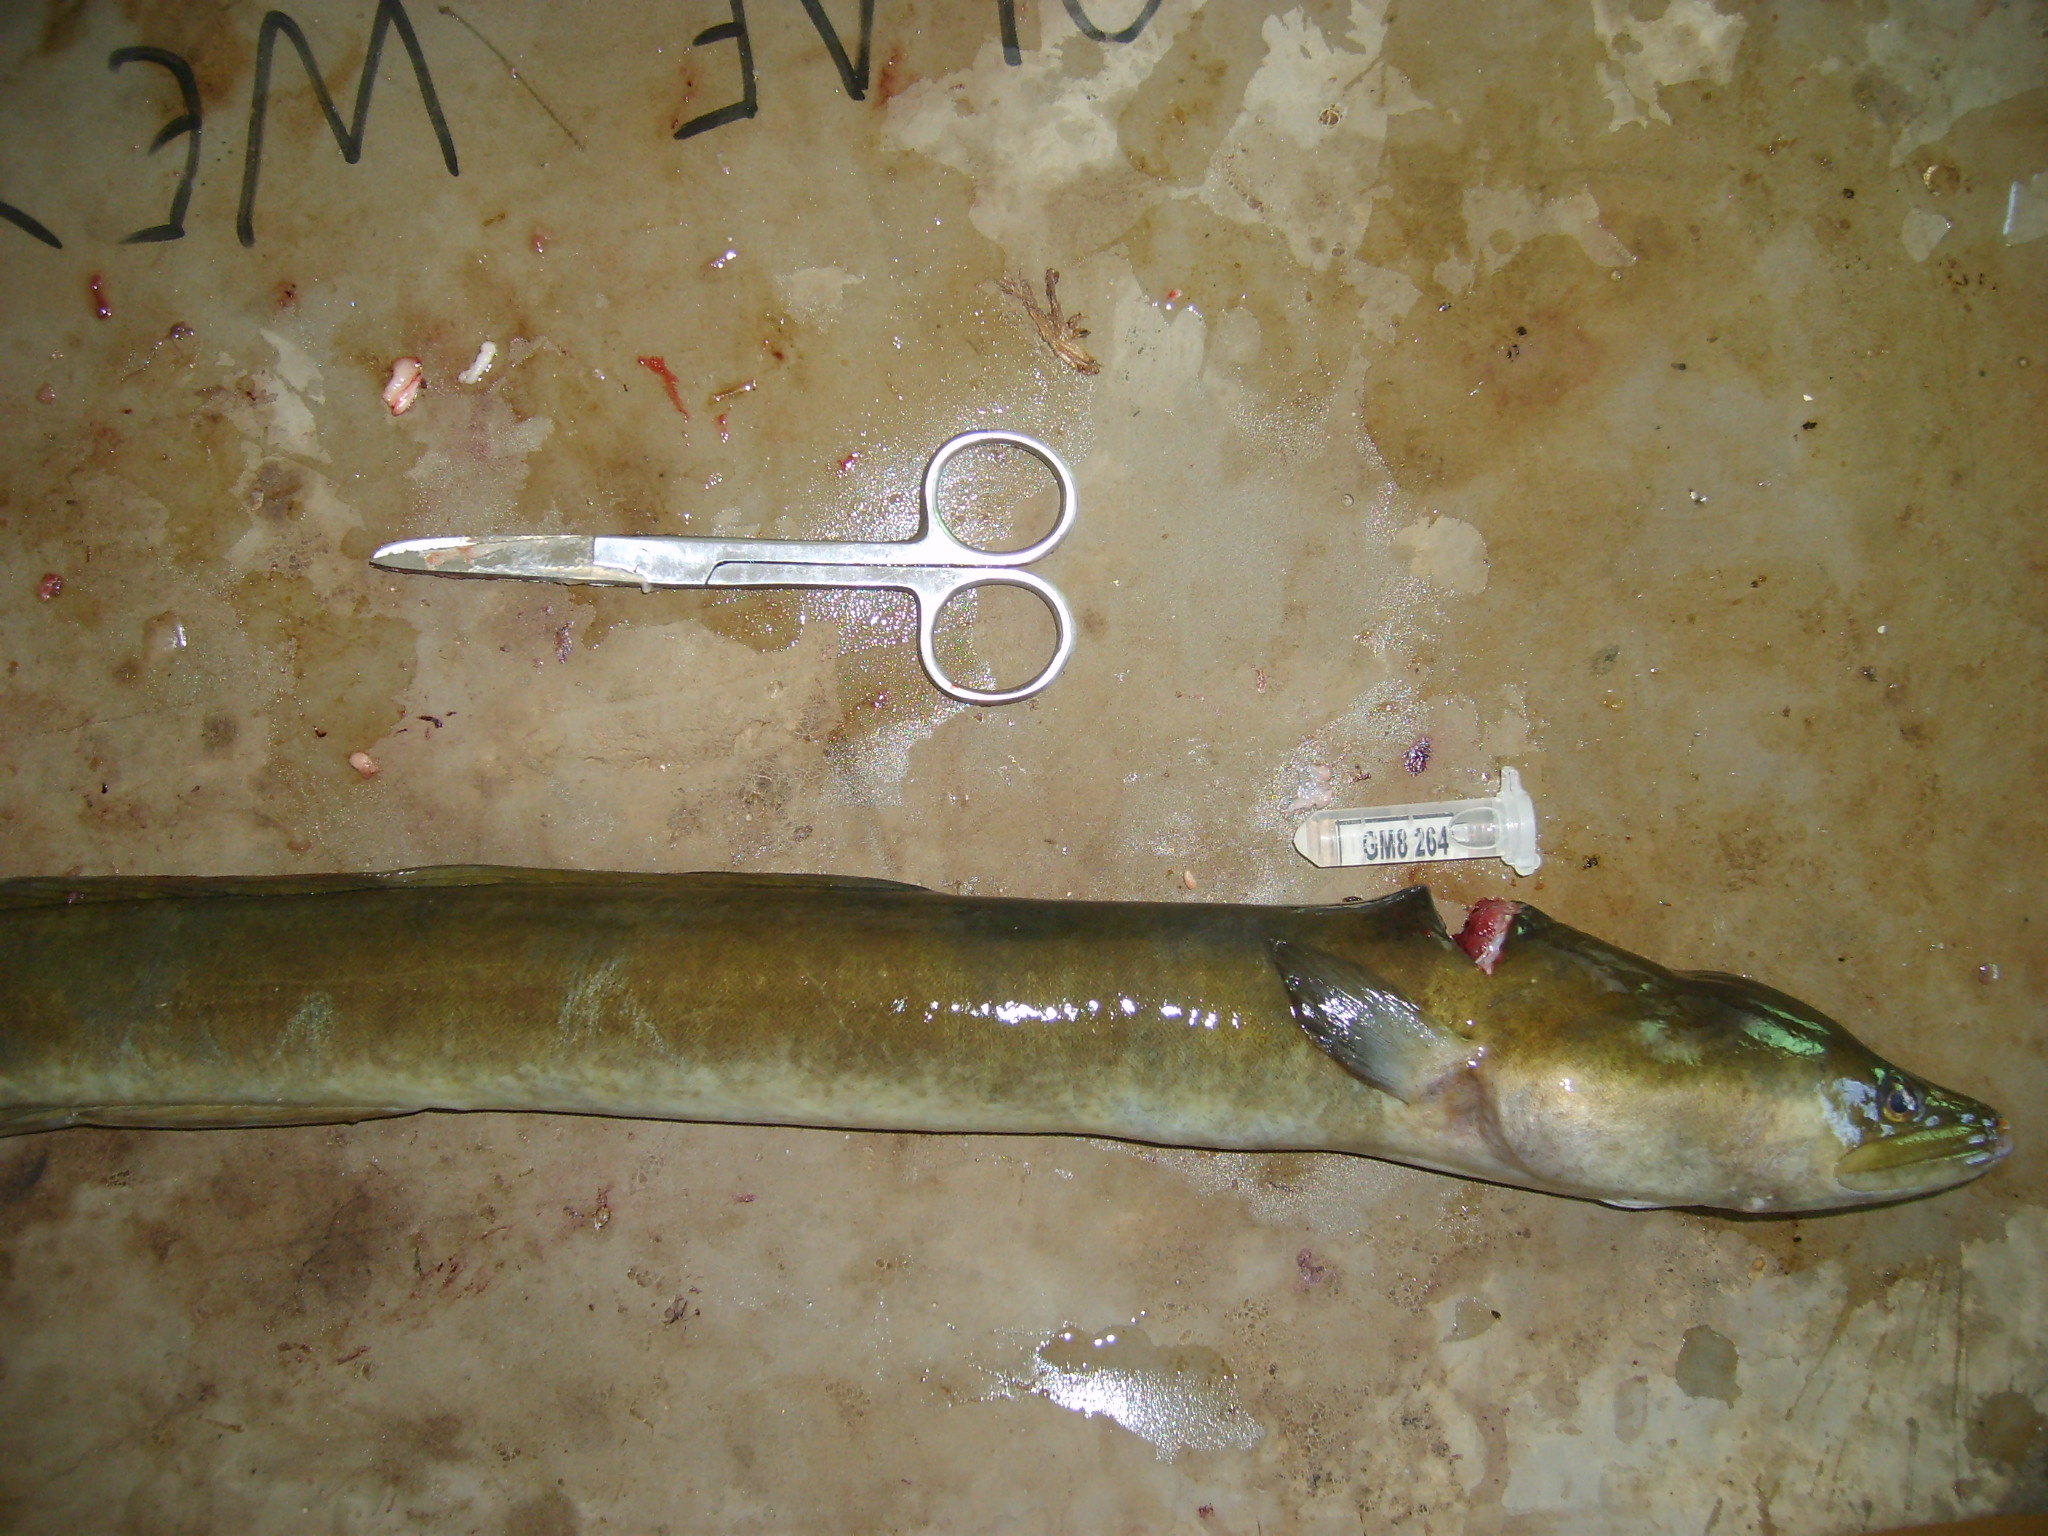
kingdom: Animalia
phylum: Chordata
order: Anguilliformes
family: Anguillidae
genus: Anguilla
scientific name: Anguilla mossambica
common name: African longfin eel
